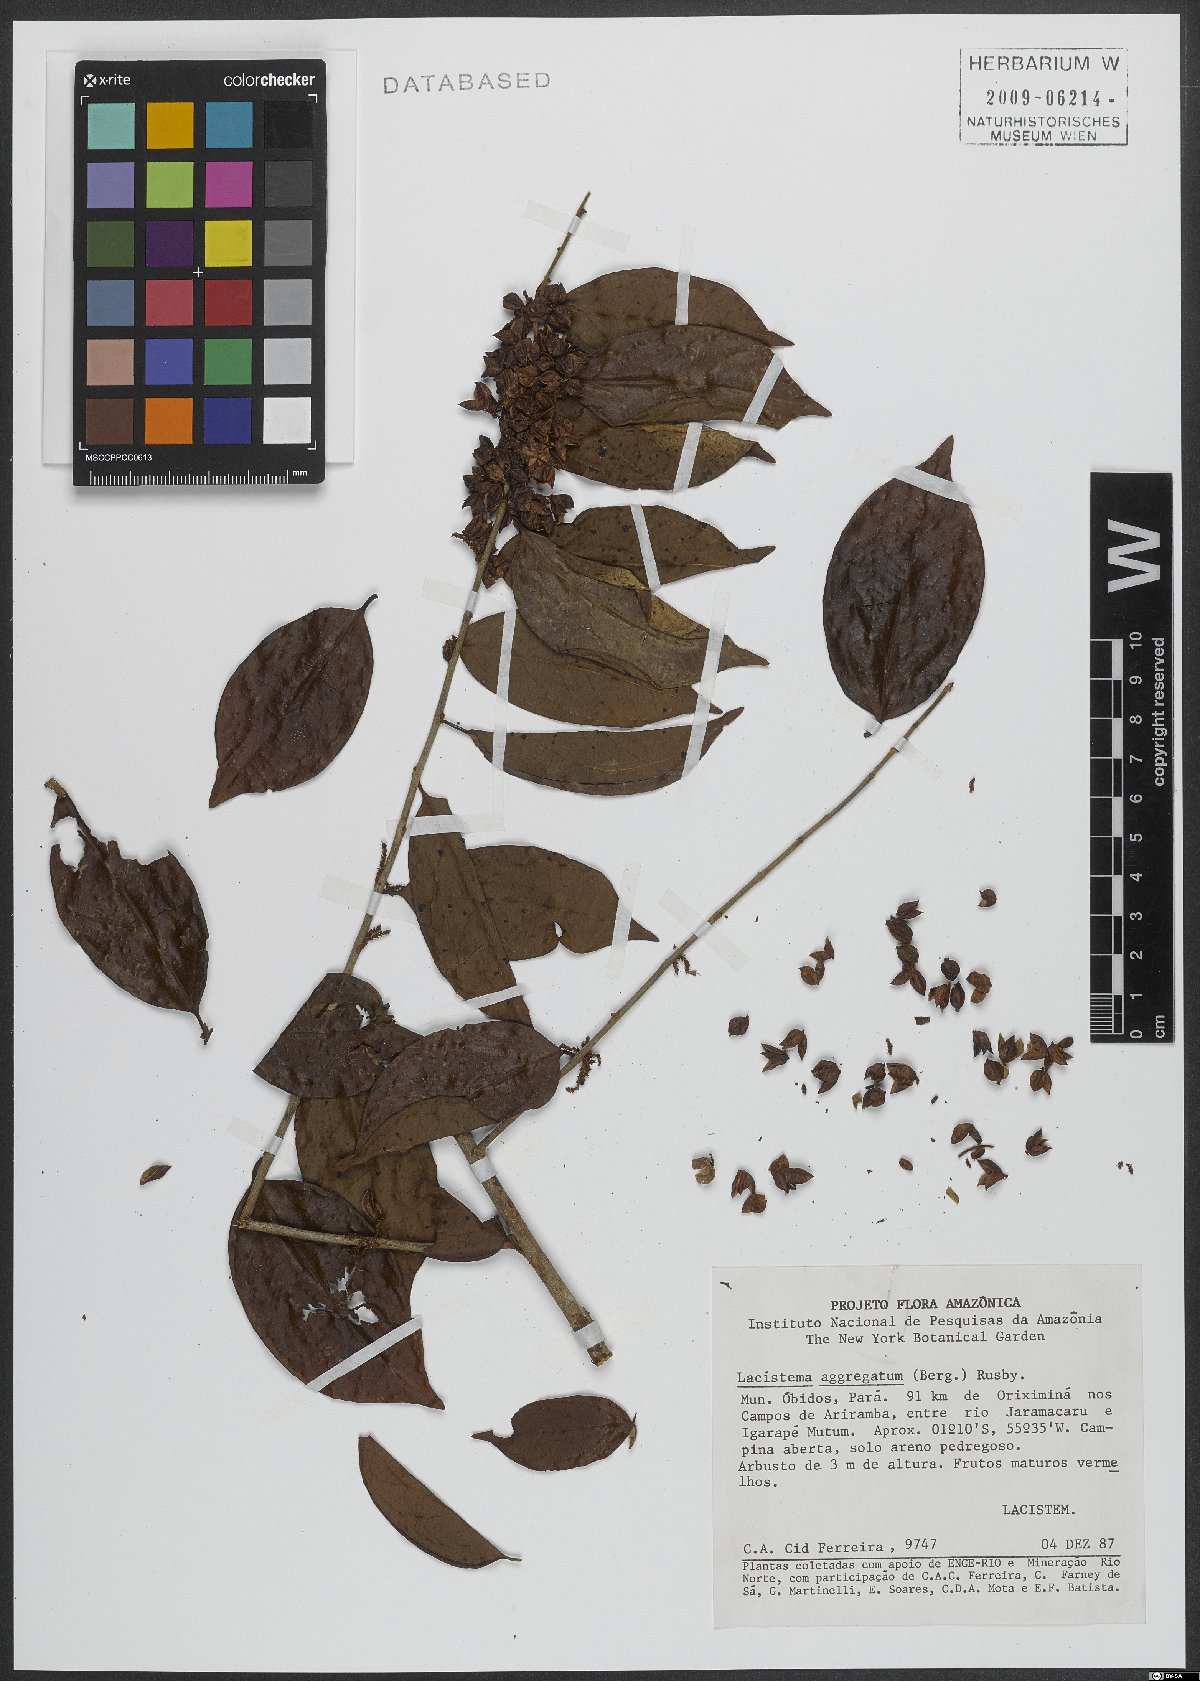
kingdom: Plantae
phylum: Tracheophyta
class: Magnoliopsida
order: Malpighiales
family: Lacistemataceae
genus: Lacistema
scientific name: Lacistema polystachyum
